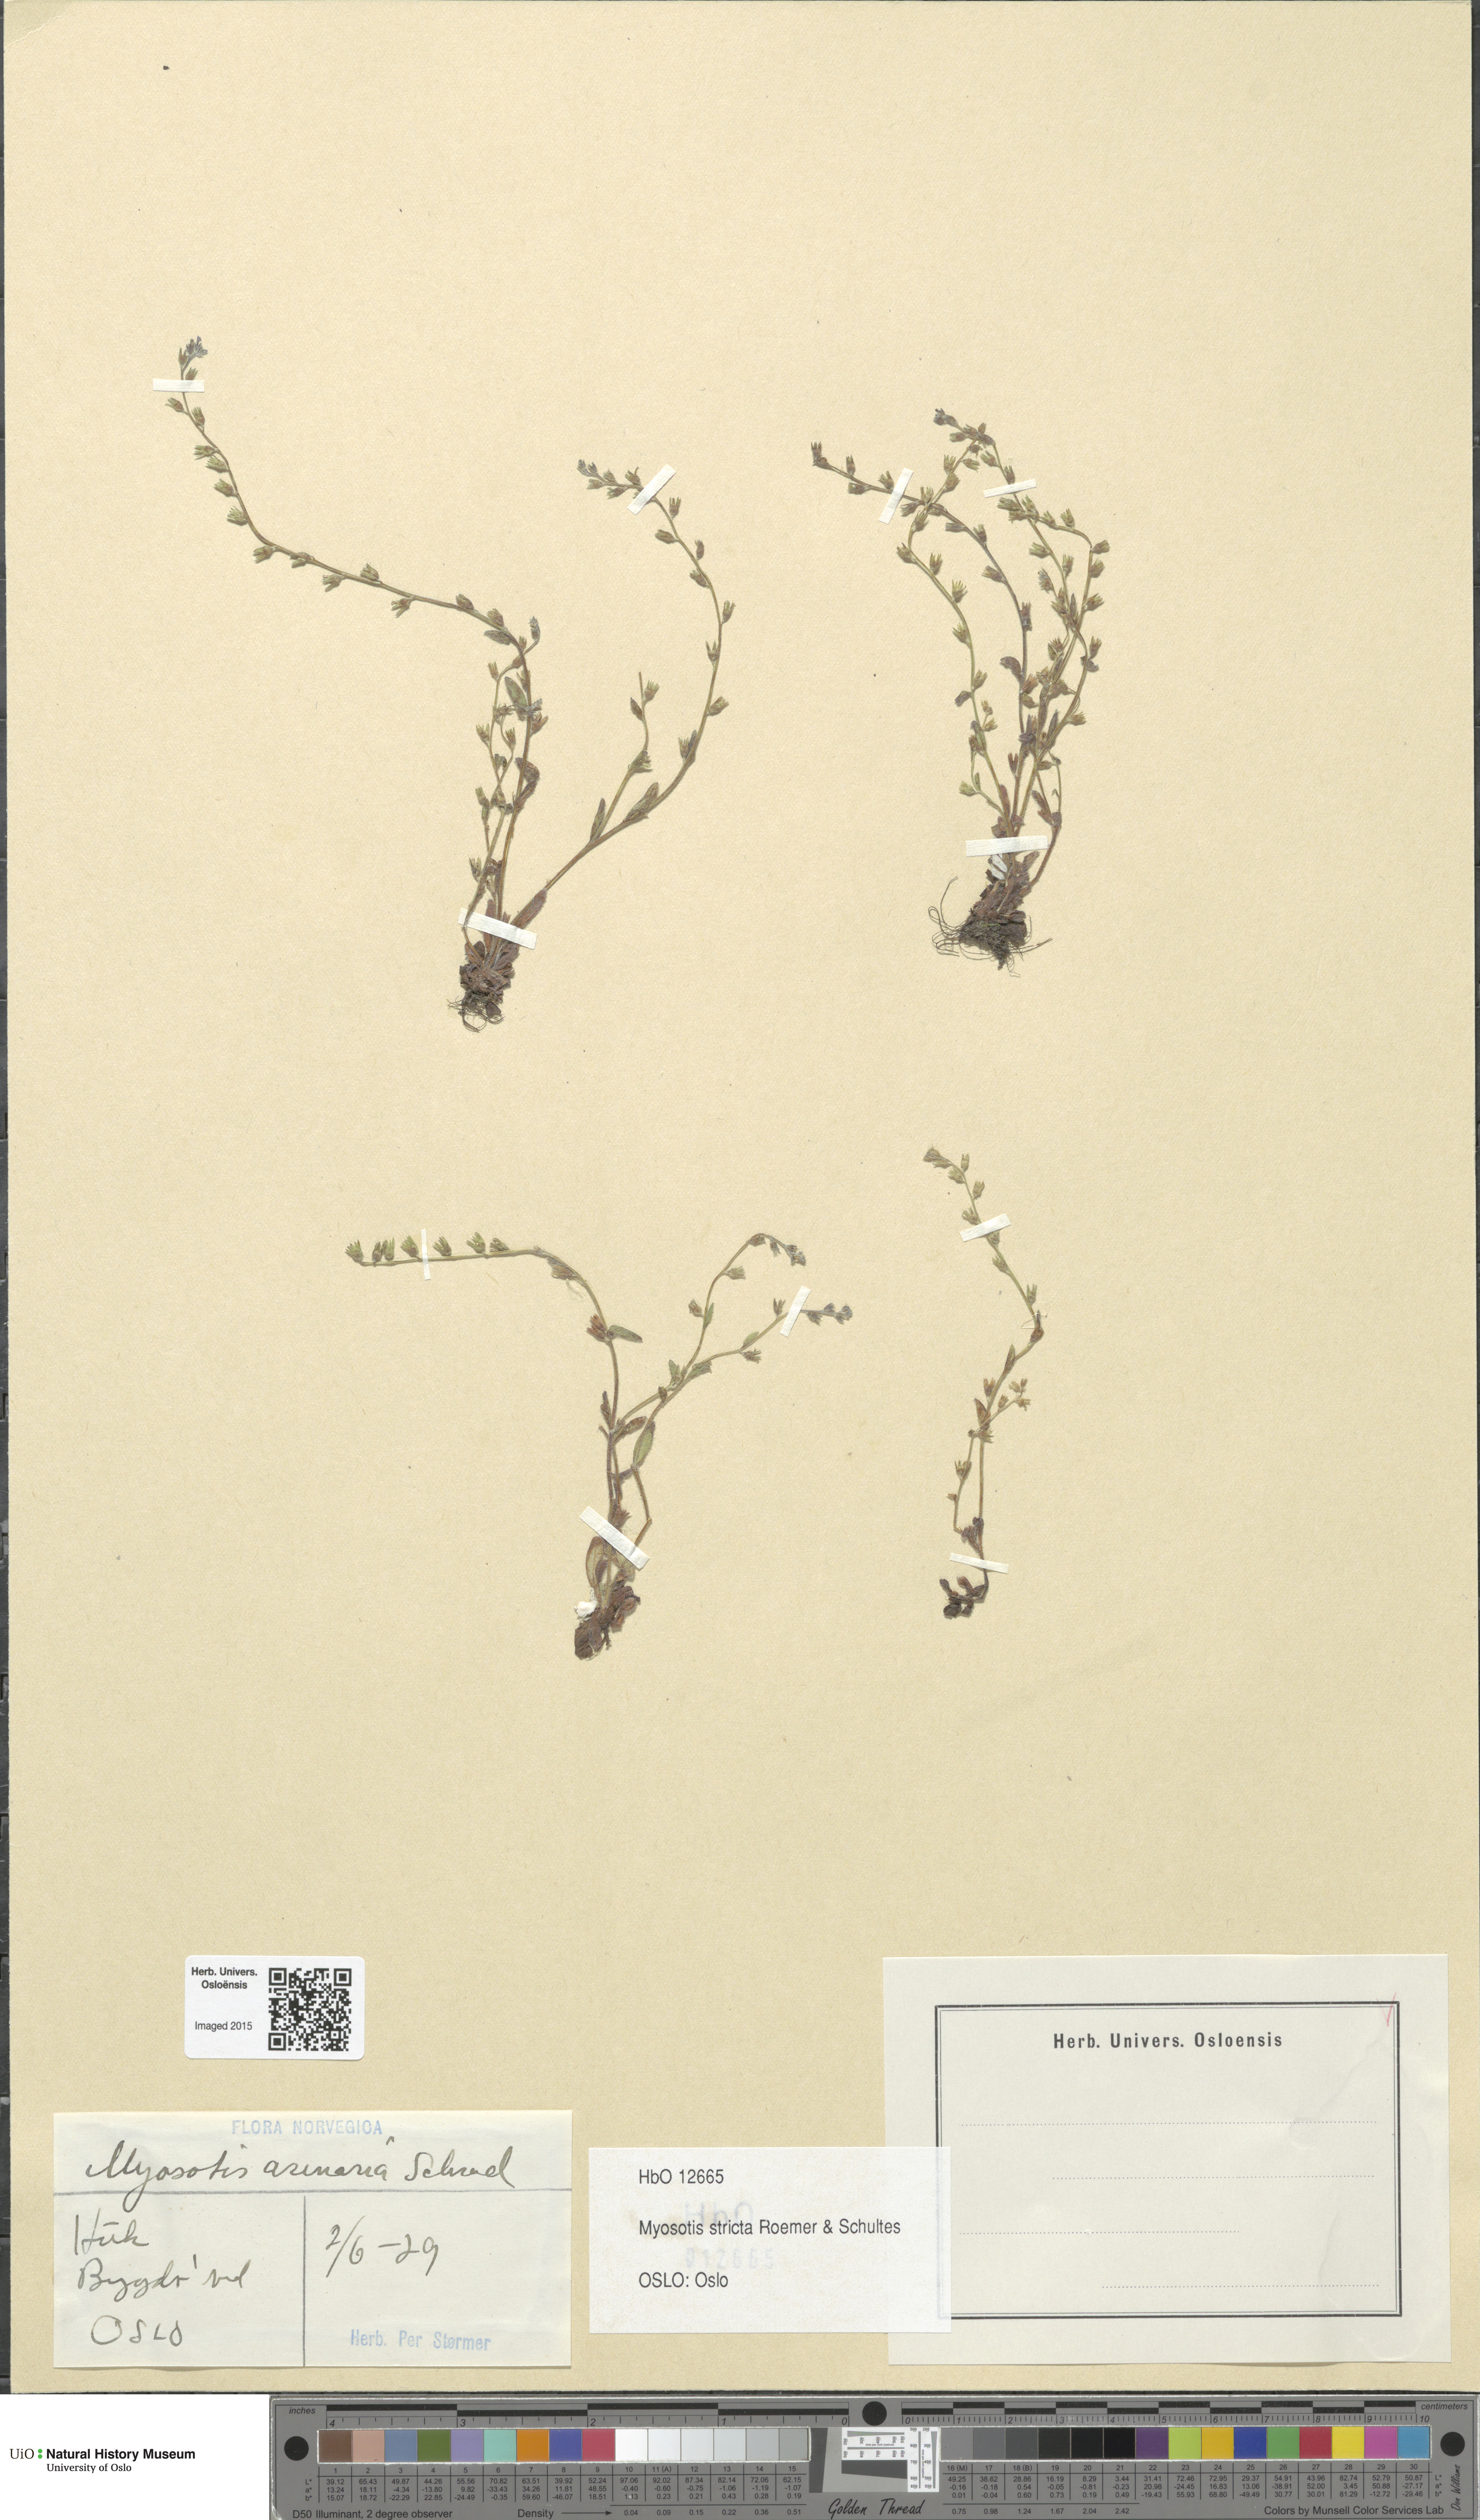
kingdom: Plantae
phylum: Tracheophyta
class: Magnoliopsida
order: Boraginales
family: Boraginaceae
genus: Myosotis
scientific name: Myosotis stricta
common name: Strict forget-me-not
